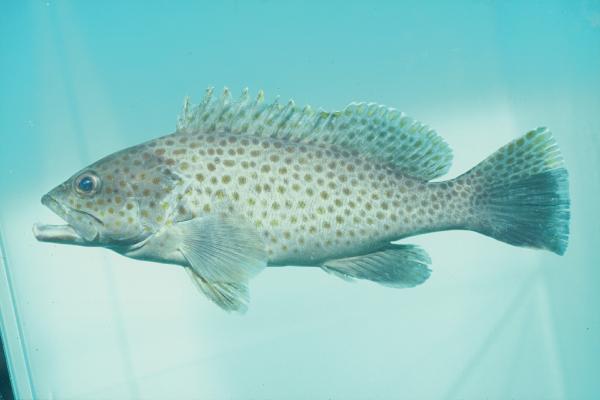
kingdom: Animalia
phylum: Chordata
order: Perciformes
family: Serranidae
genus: Epinephelus
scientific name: Epinephelus bleekeri
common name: Duskytail grouper
